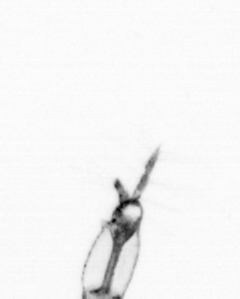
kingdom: Animalia
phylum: Arthropoda
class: Copepoda
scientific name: Copepoda
